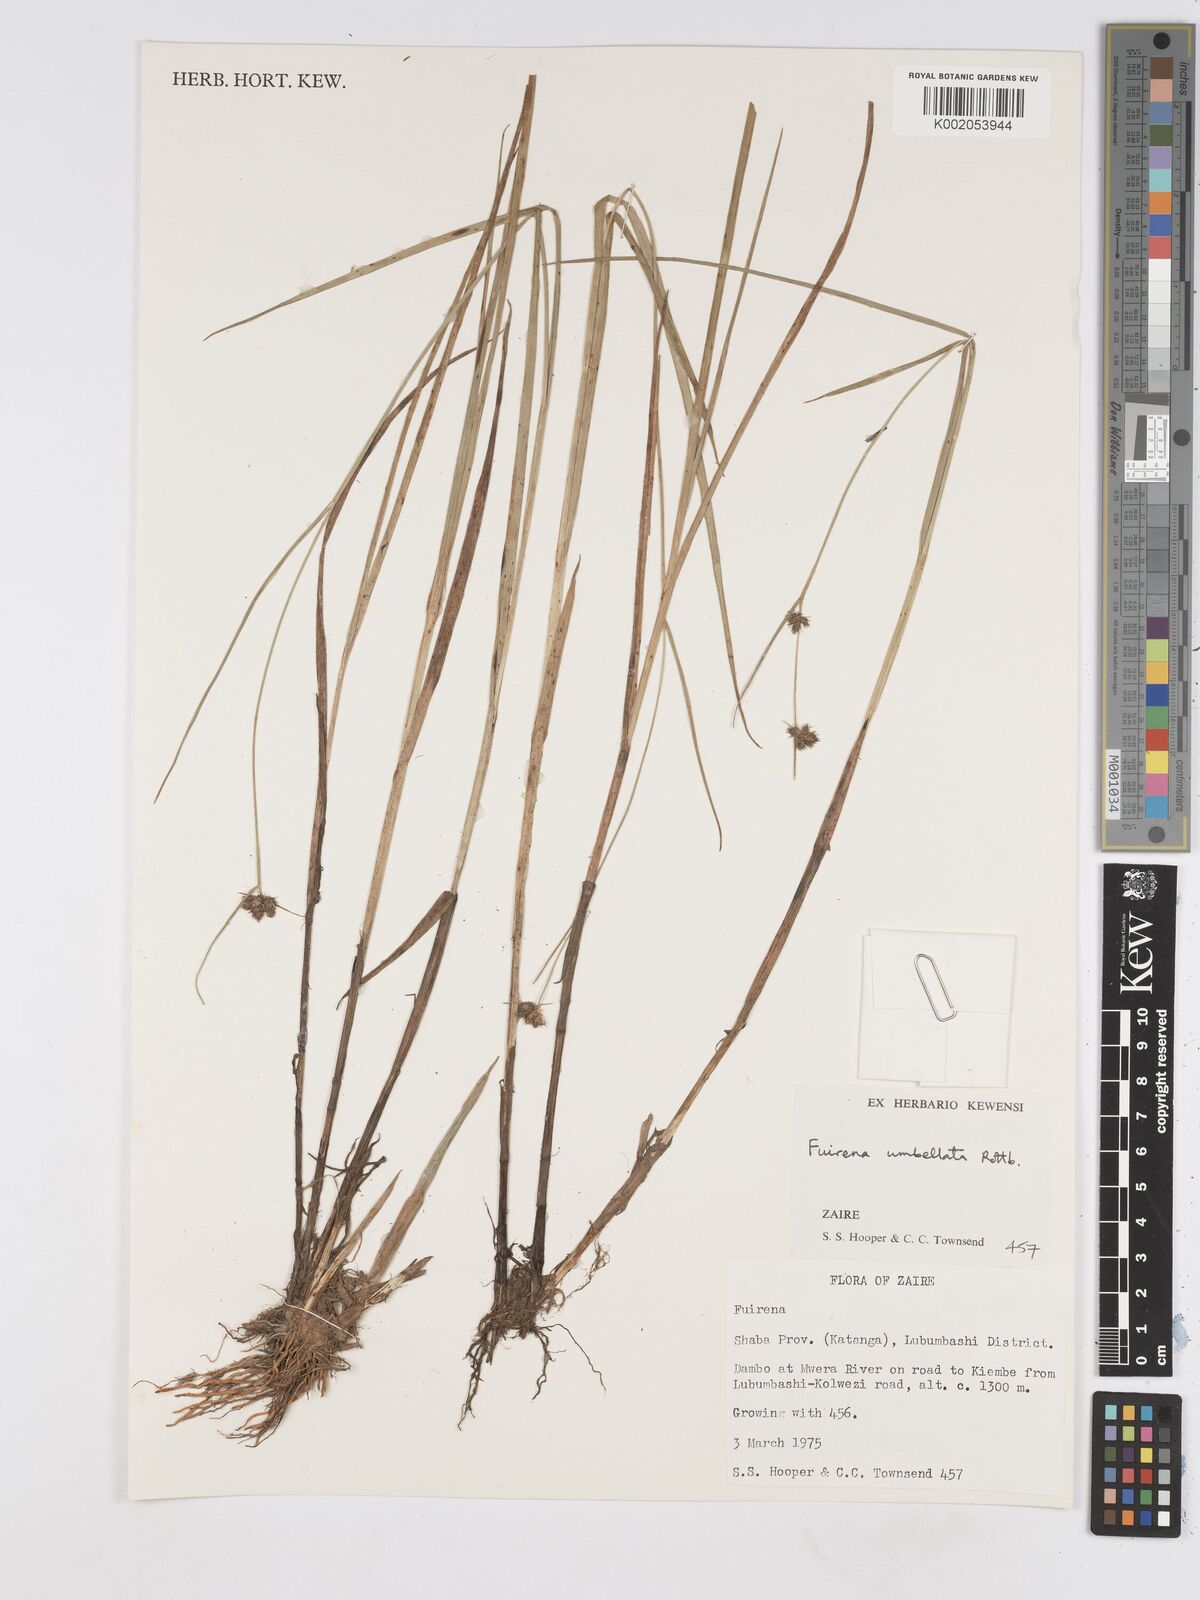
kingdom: Plantae
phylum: Tracheophyta
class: Liliopsida
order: Poales
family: Cyperaceae
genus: Fuirena
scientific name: Fuirena umbellata
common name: Yefen
